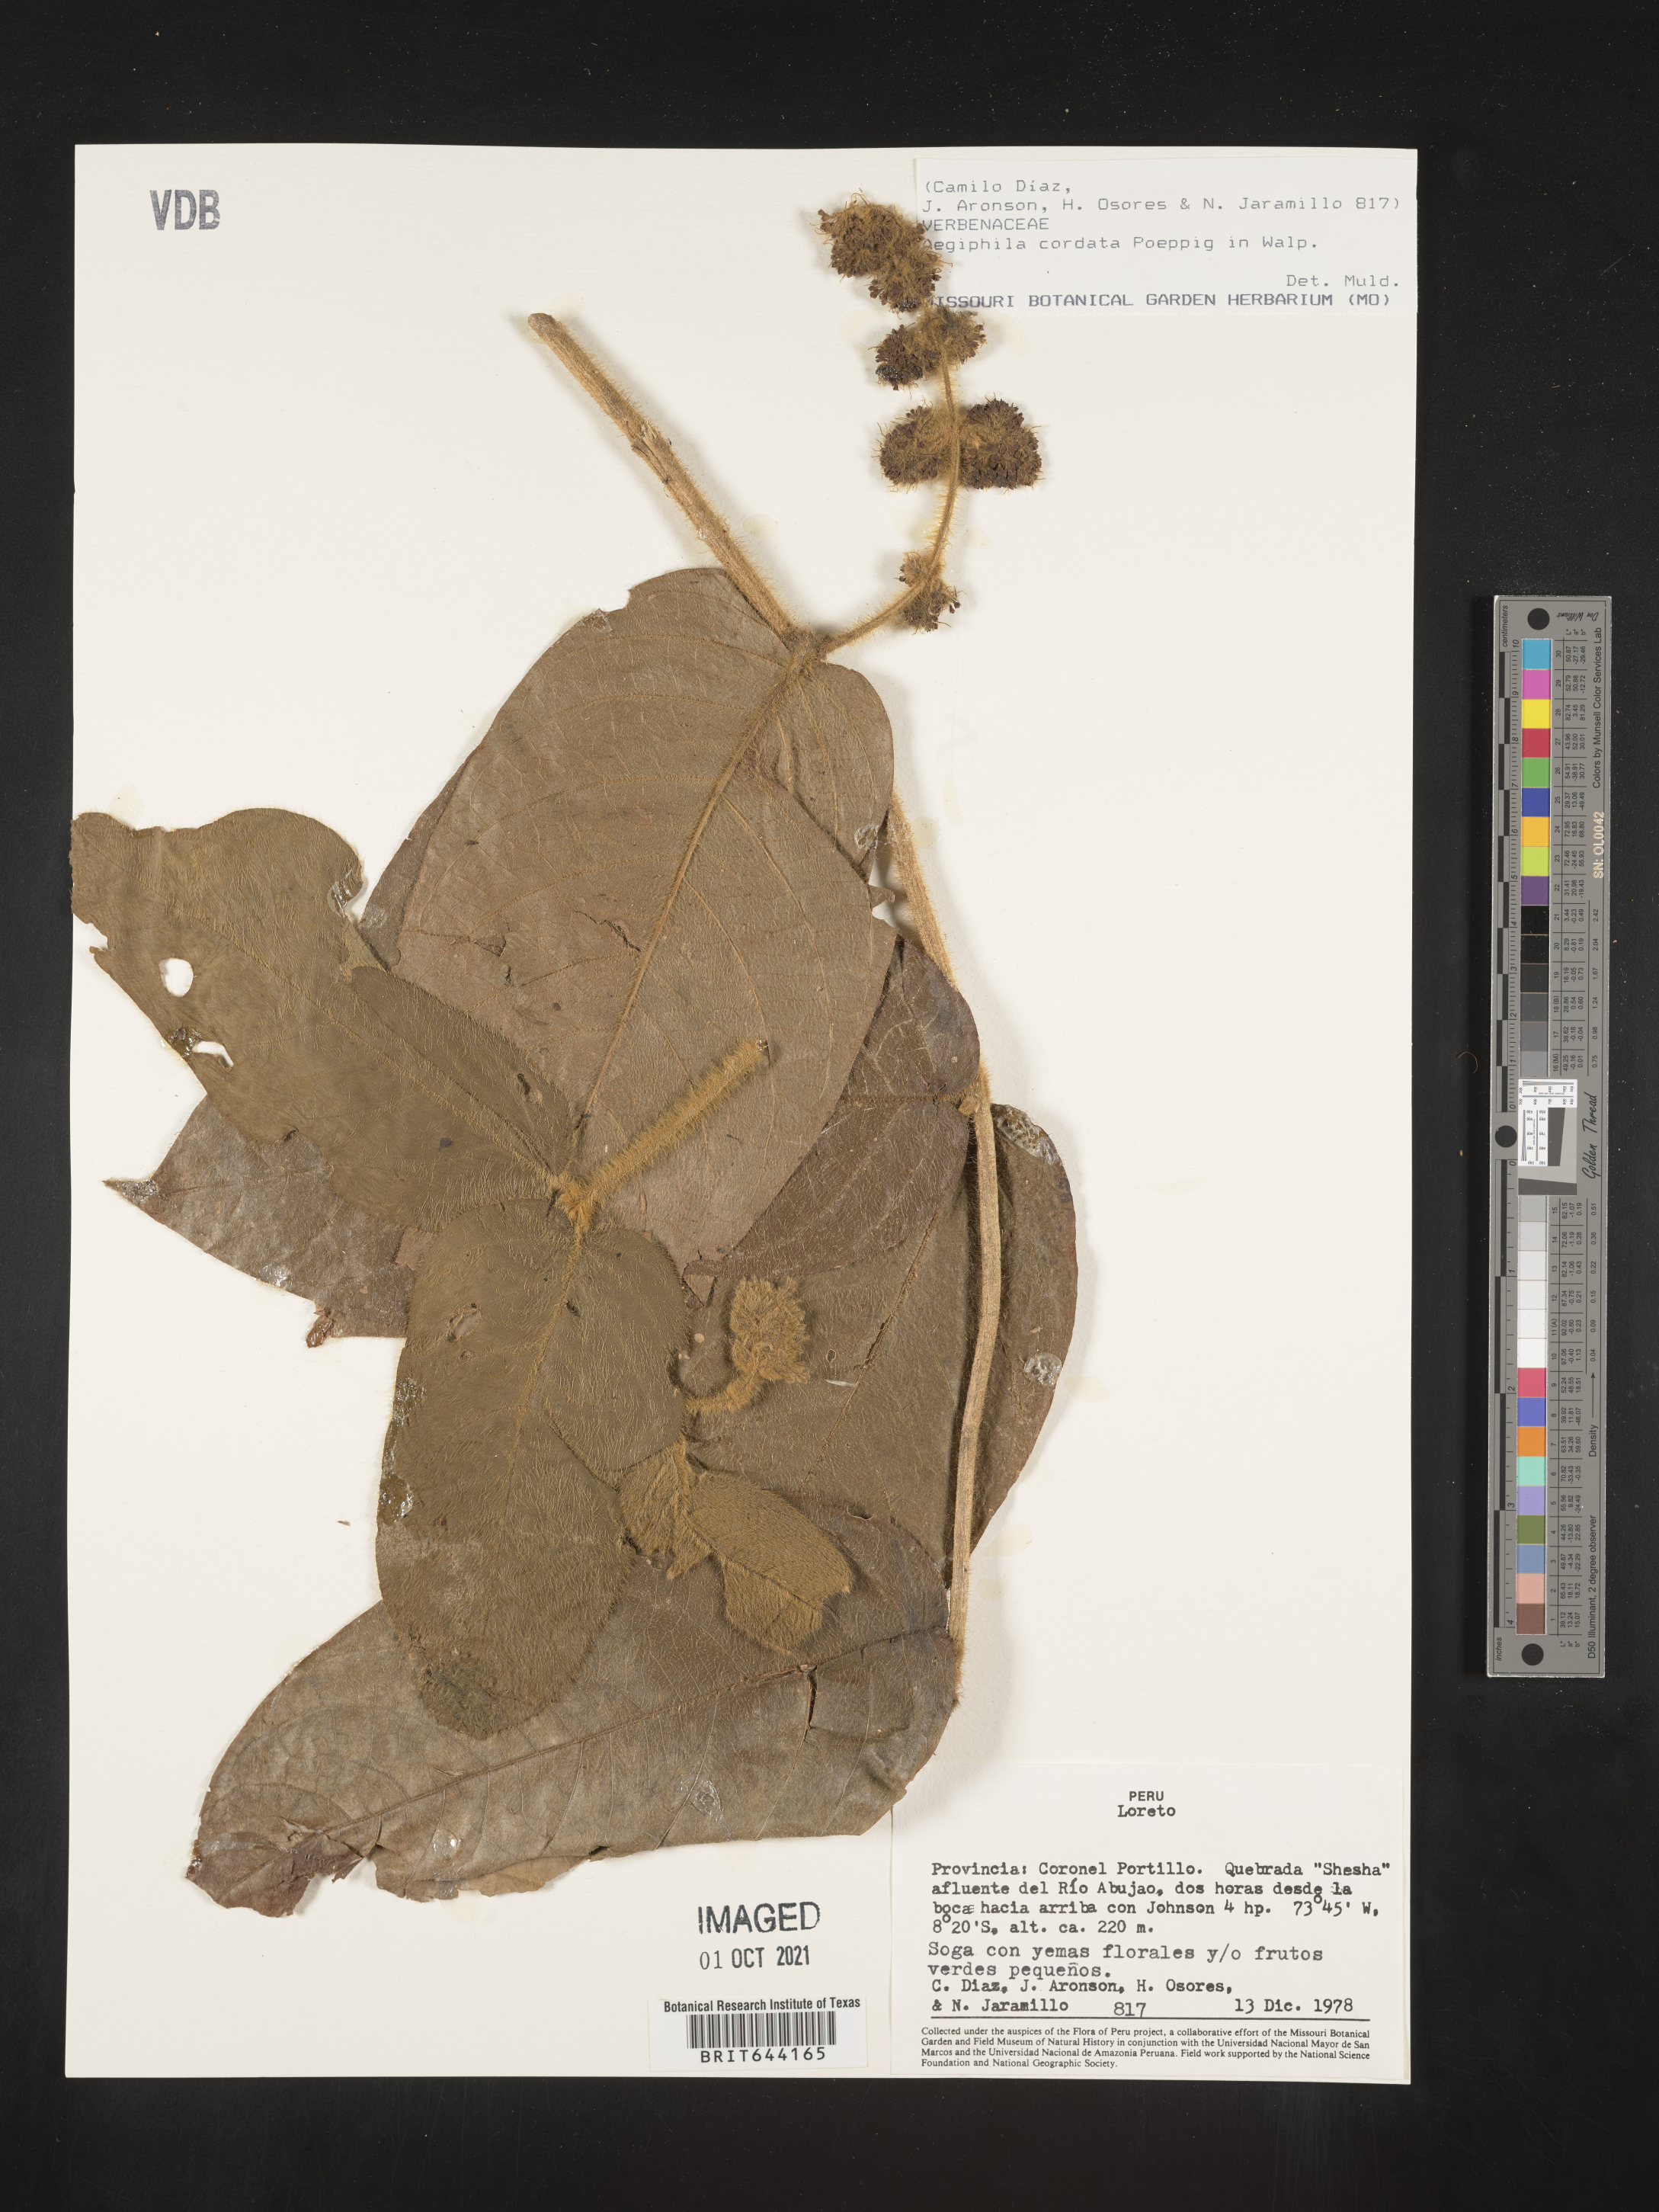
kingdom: Plantae
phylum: Tracheophyta
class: Magnoliopsida
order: Lamiales
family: Lamiaceae
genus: Aegiphila
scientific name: Aegiphila
